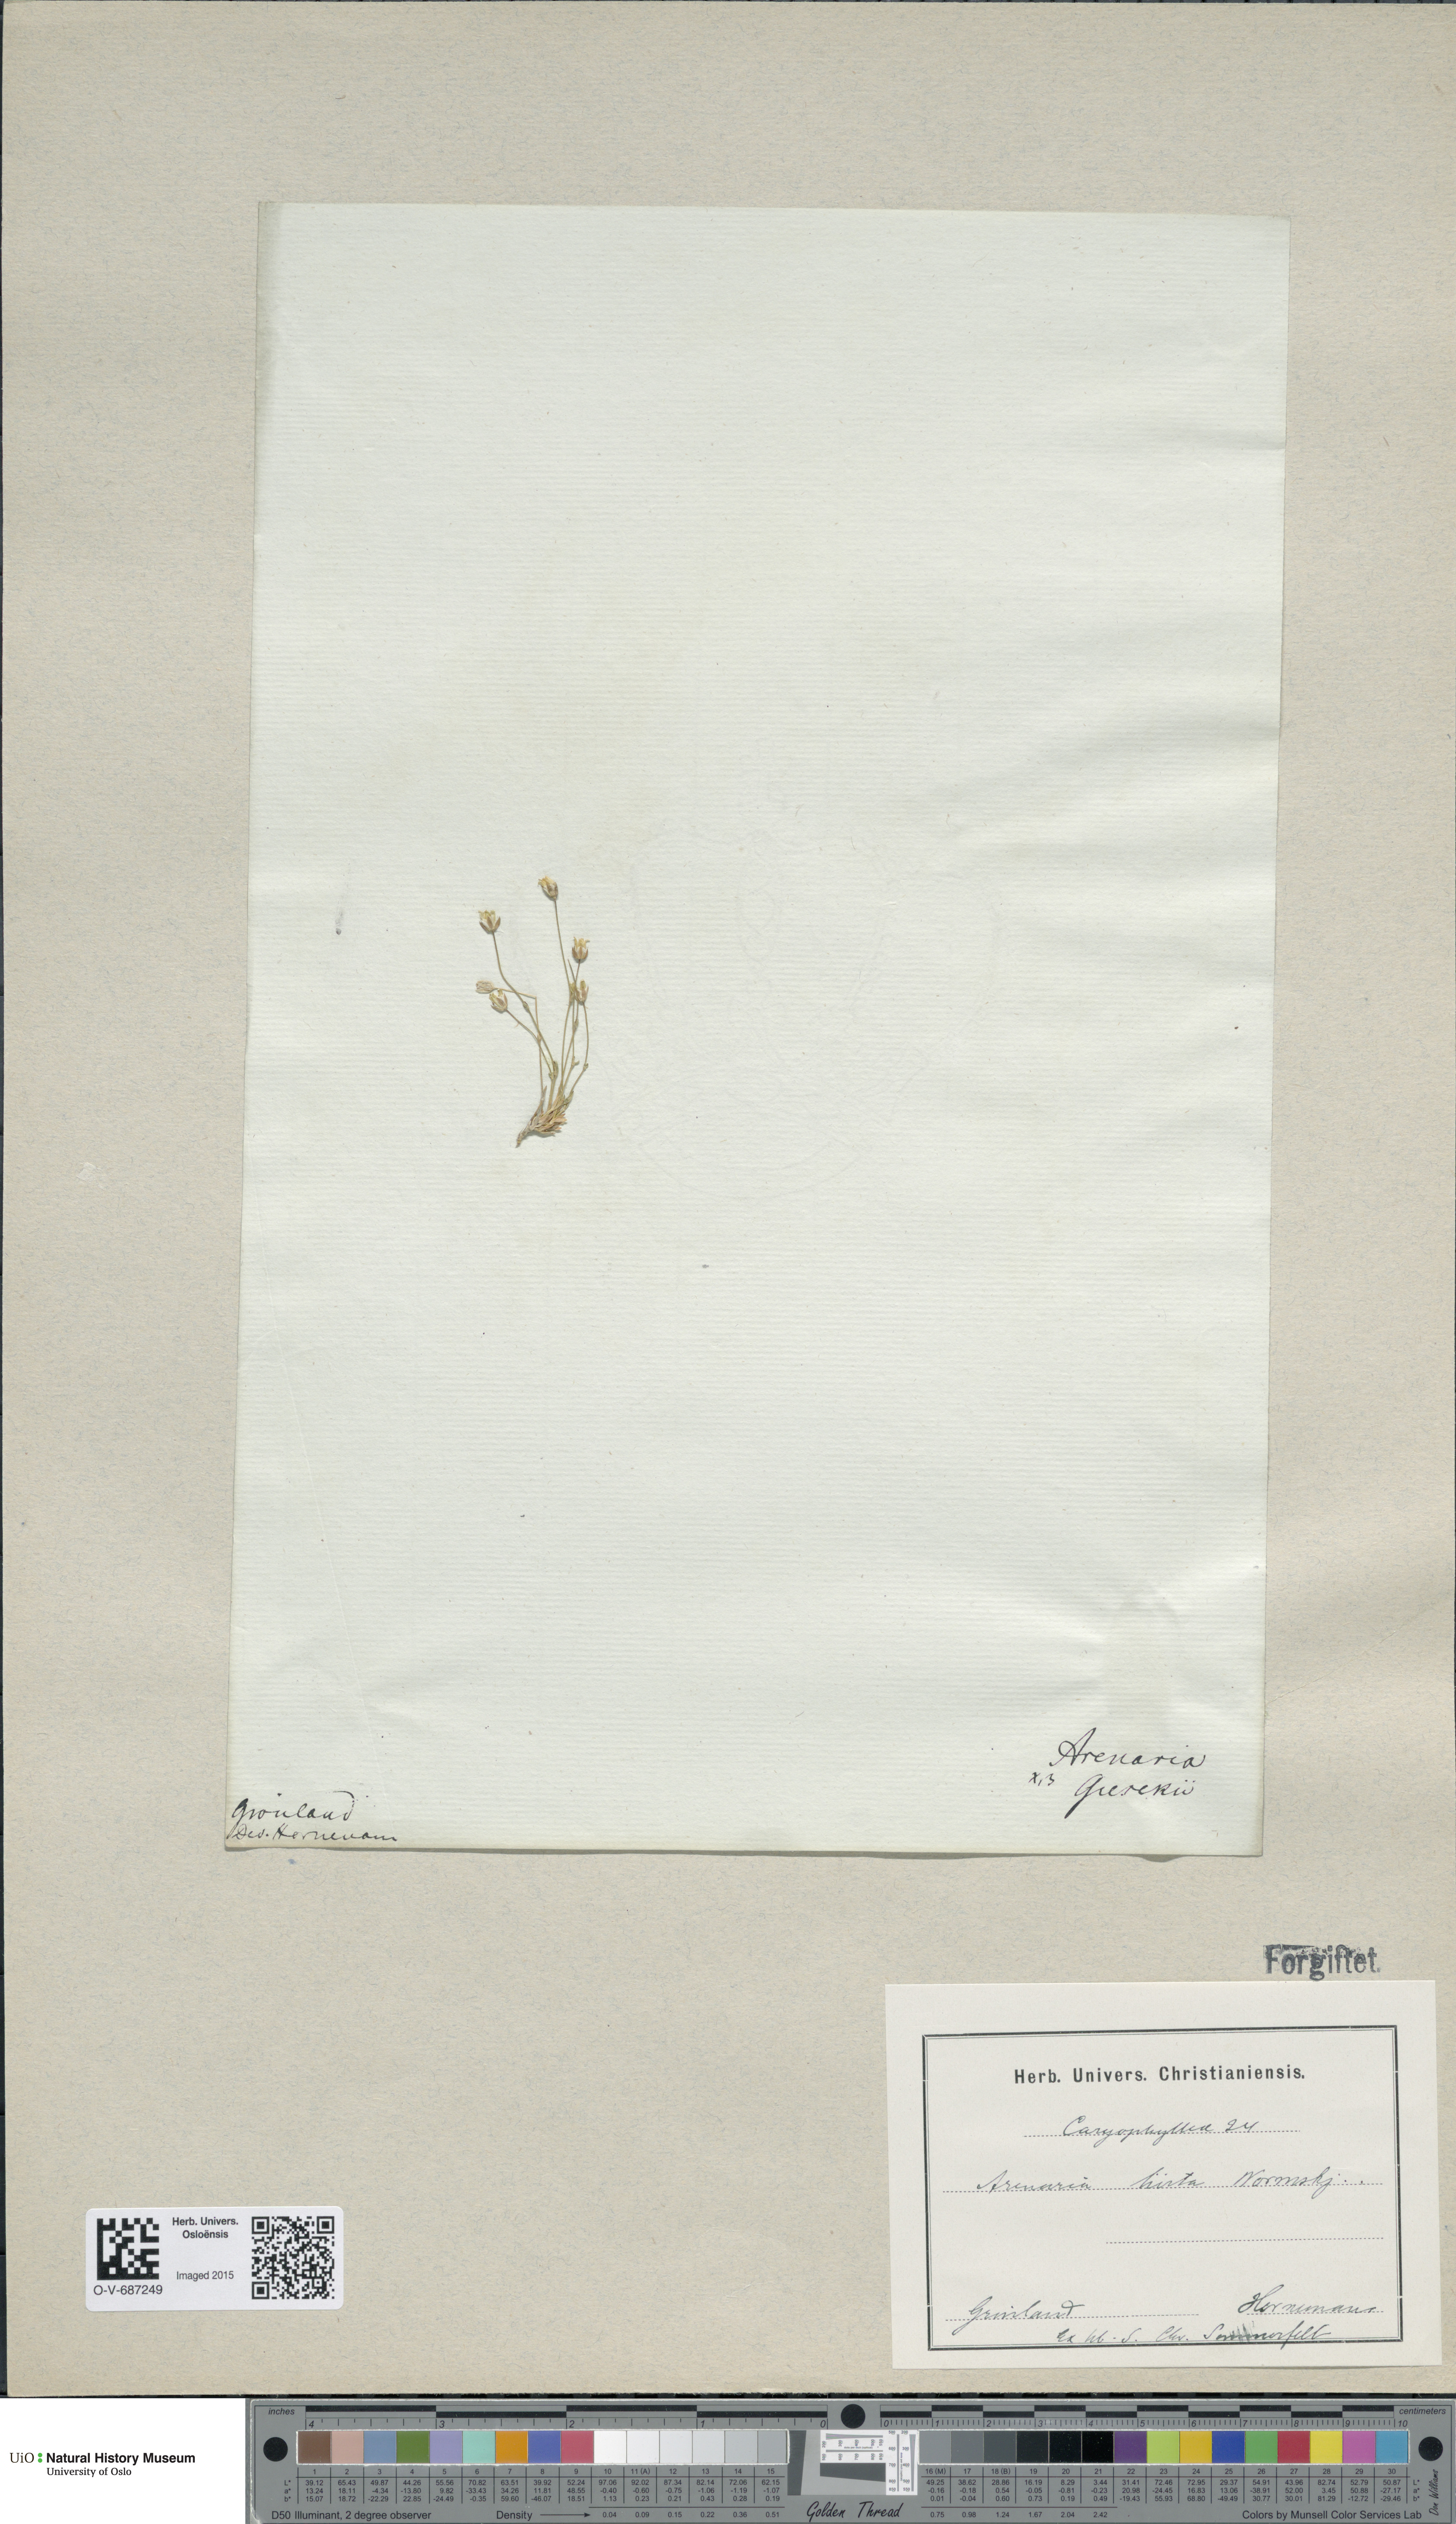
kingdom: Plantae
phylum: Tracheophyta
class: Magnoliopsida
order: Caryophyllales
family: Caryophyllaceae
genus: Sabulina
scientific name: Sabulina rubella
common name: Beautiful sandwort
